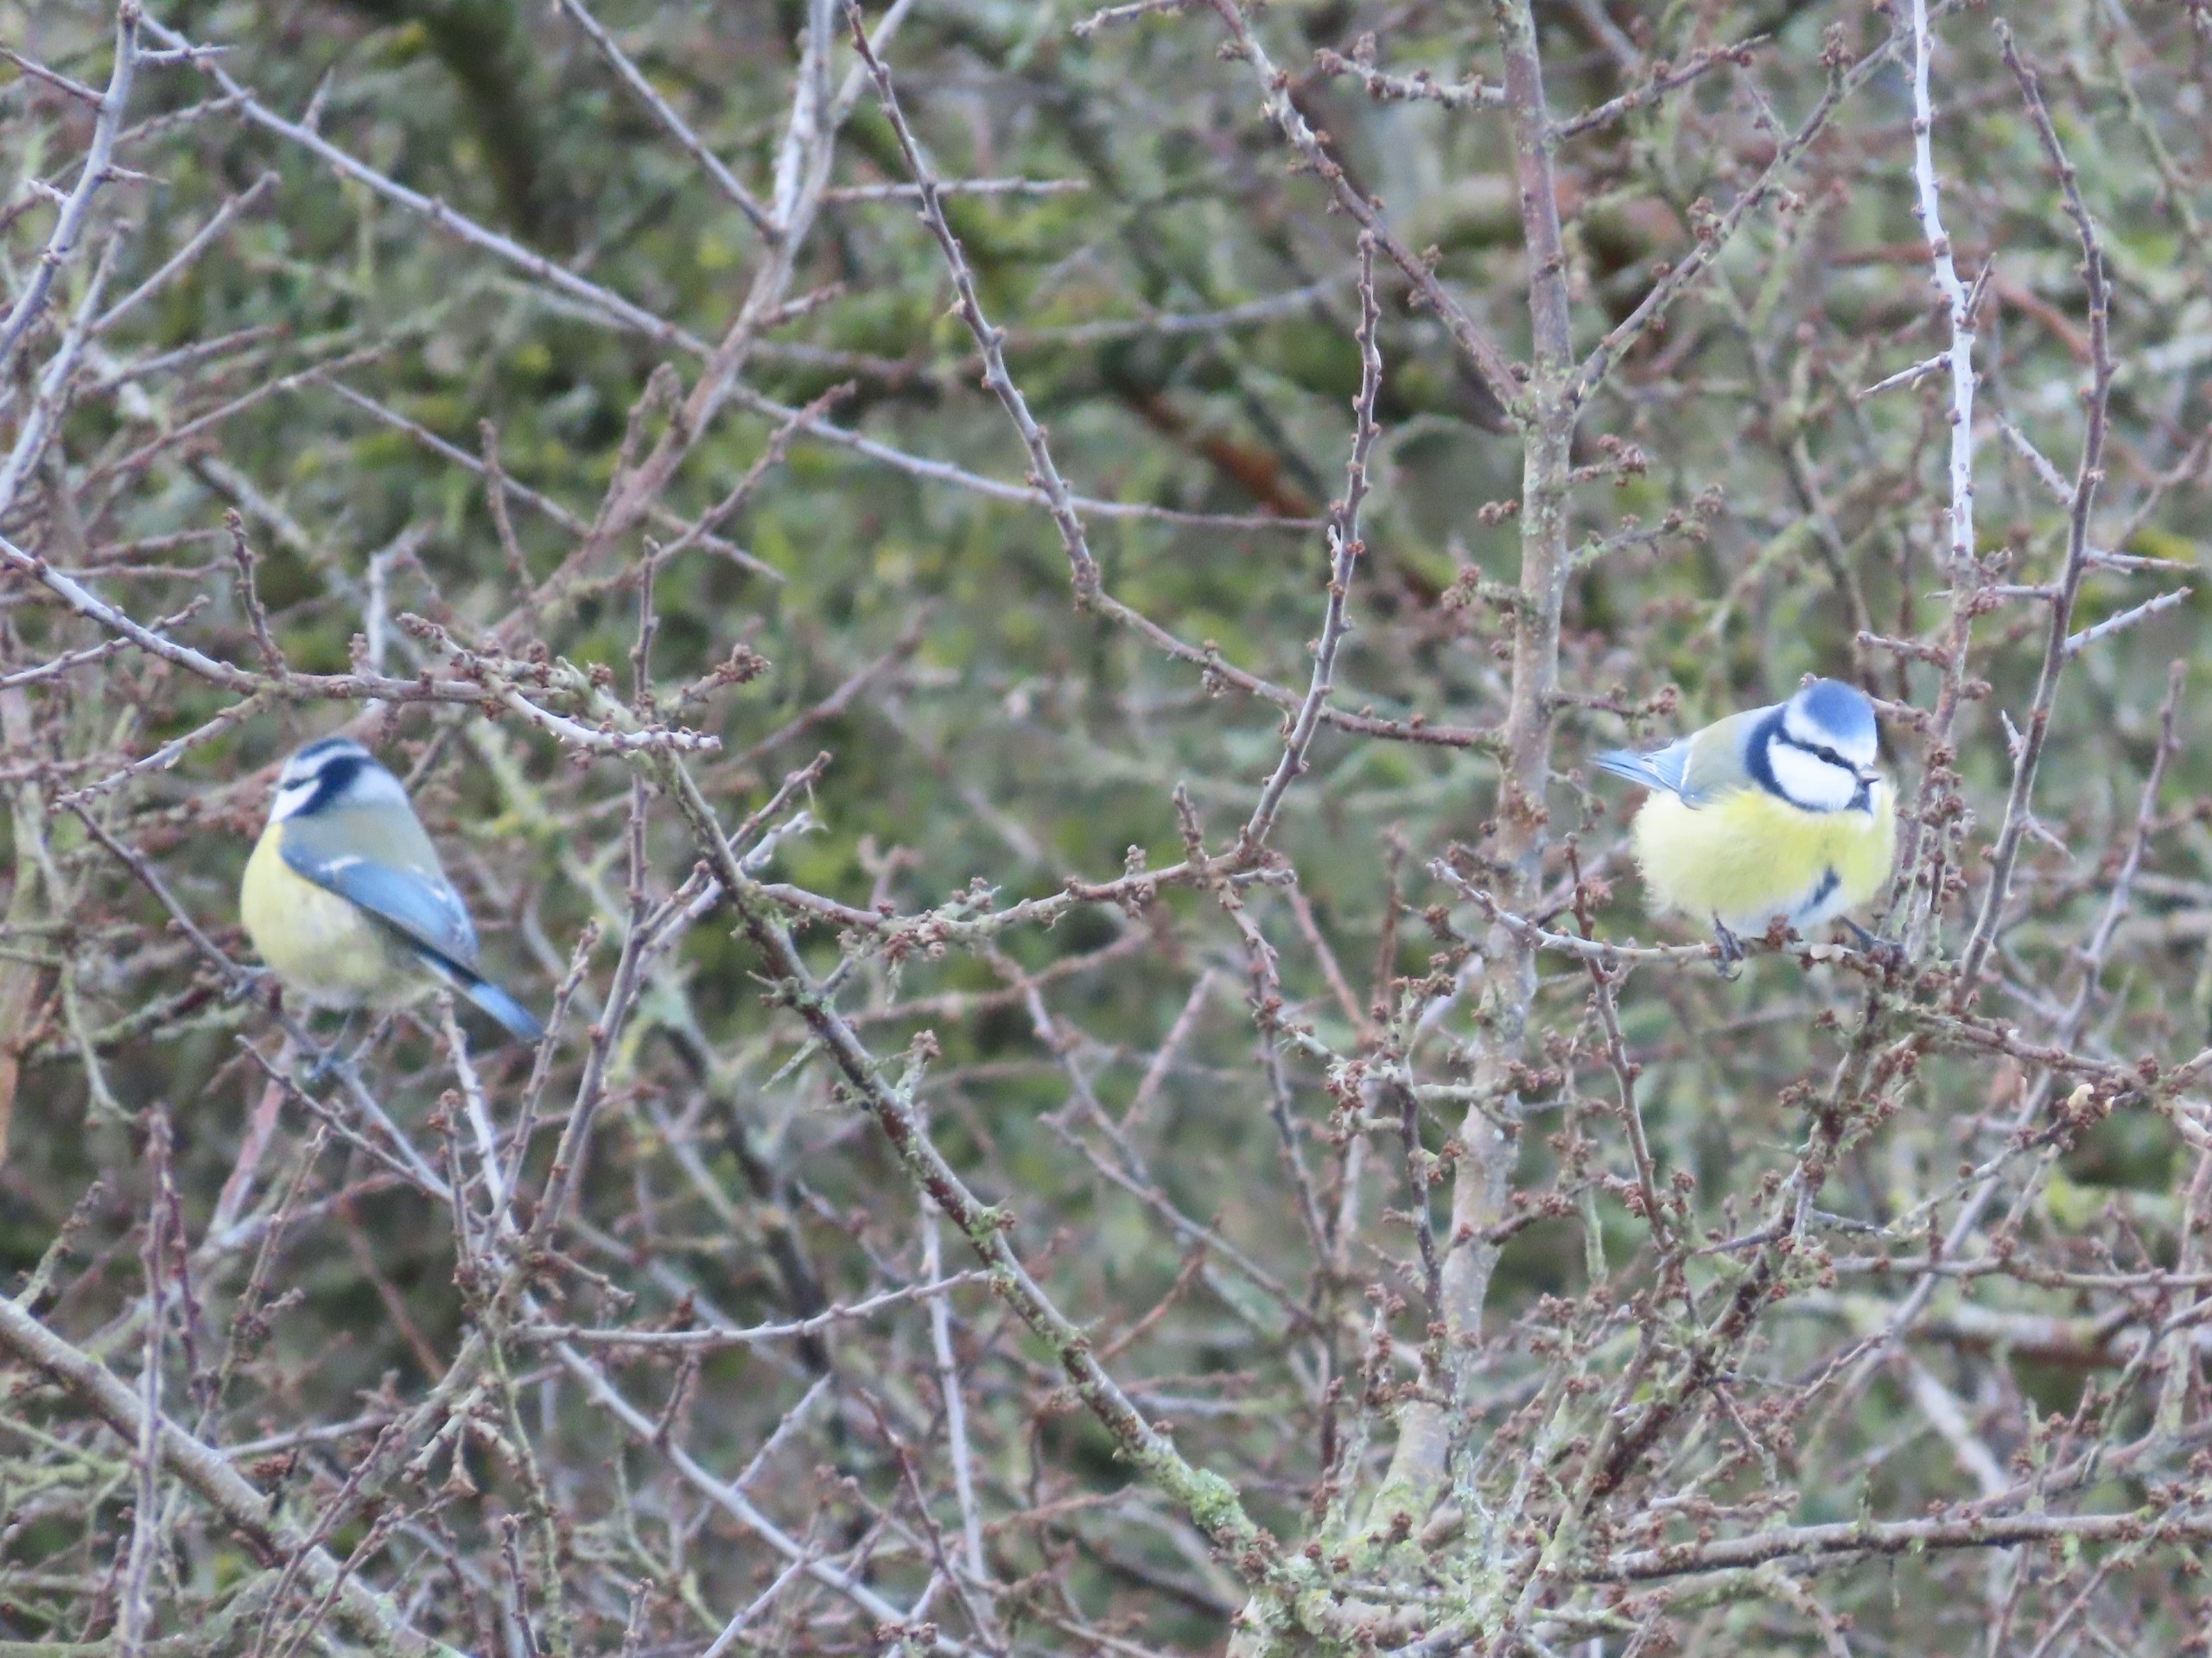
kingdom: Animalia
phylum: Chordata
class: Aves
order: Passeriformes
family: Paridae
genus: Cyanistes
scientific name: Cyanistes caeruleus
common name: Blåmejse
